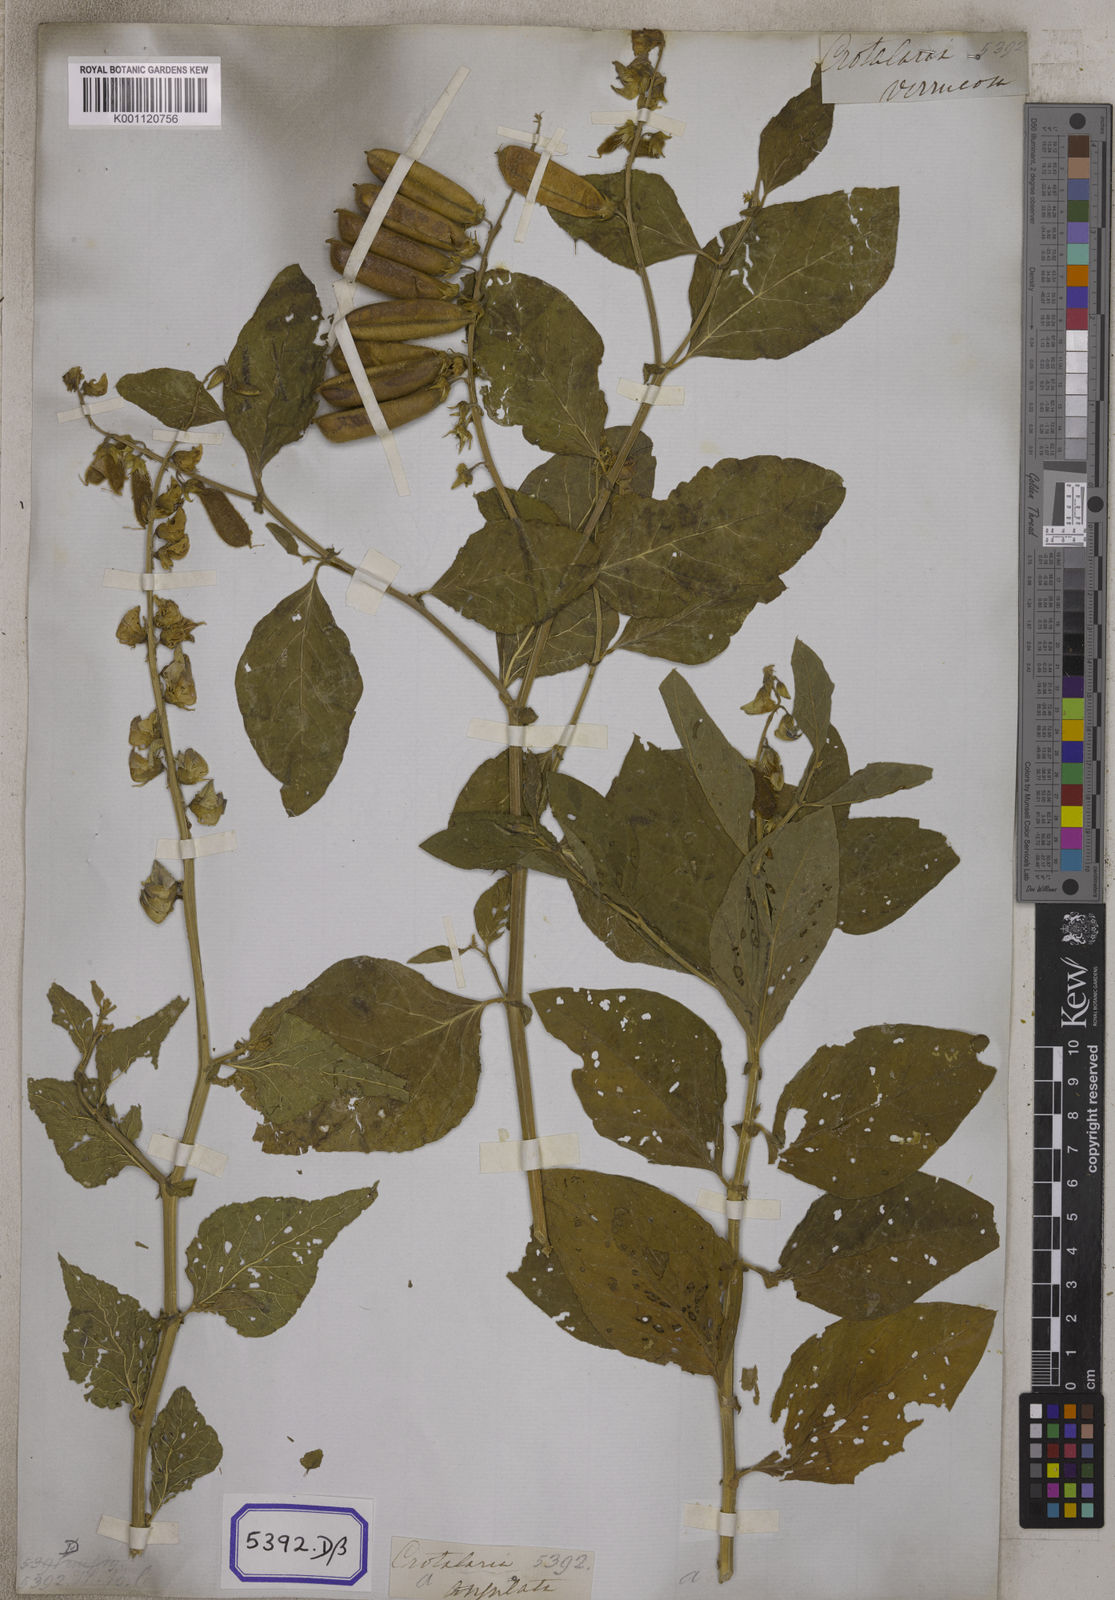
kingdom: Plantae
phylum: Tracheophyta
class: Magnoliopsida
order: Fabales
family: Fabaceae
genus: Crotalaria
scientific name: Crotalaria verrucosa
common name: Blue rattlesnake
